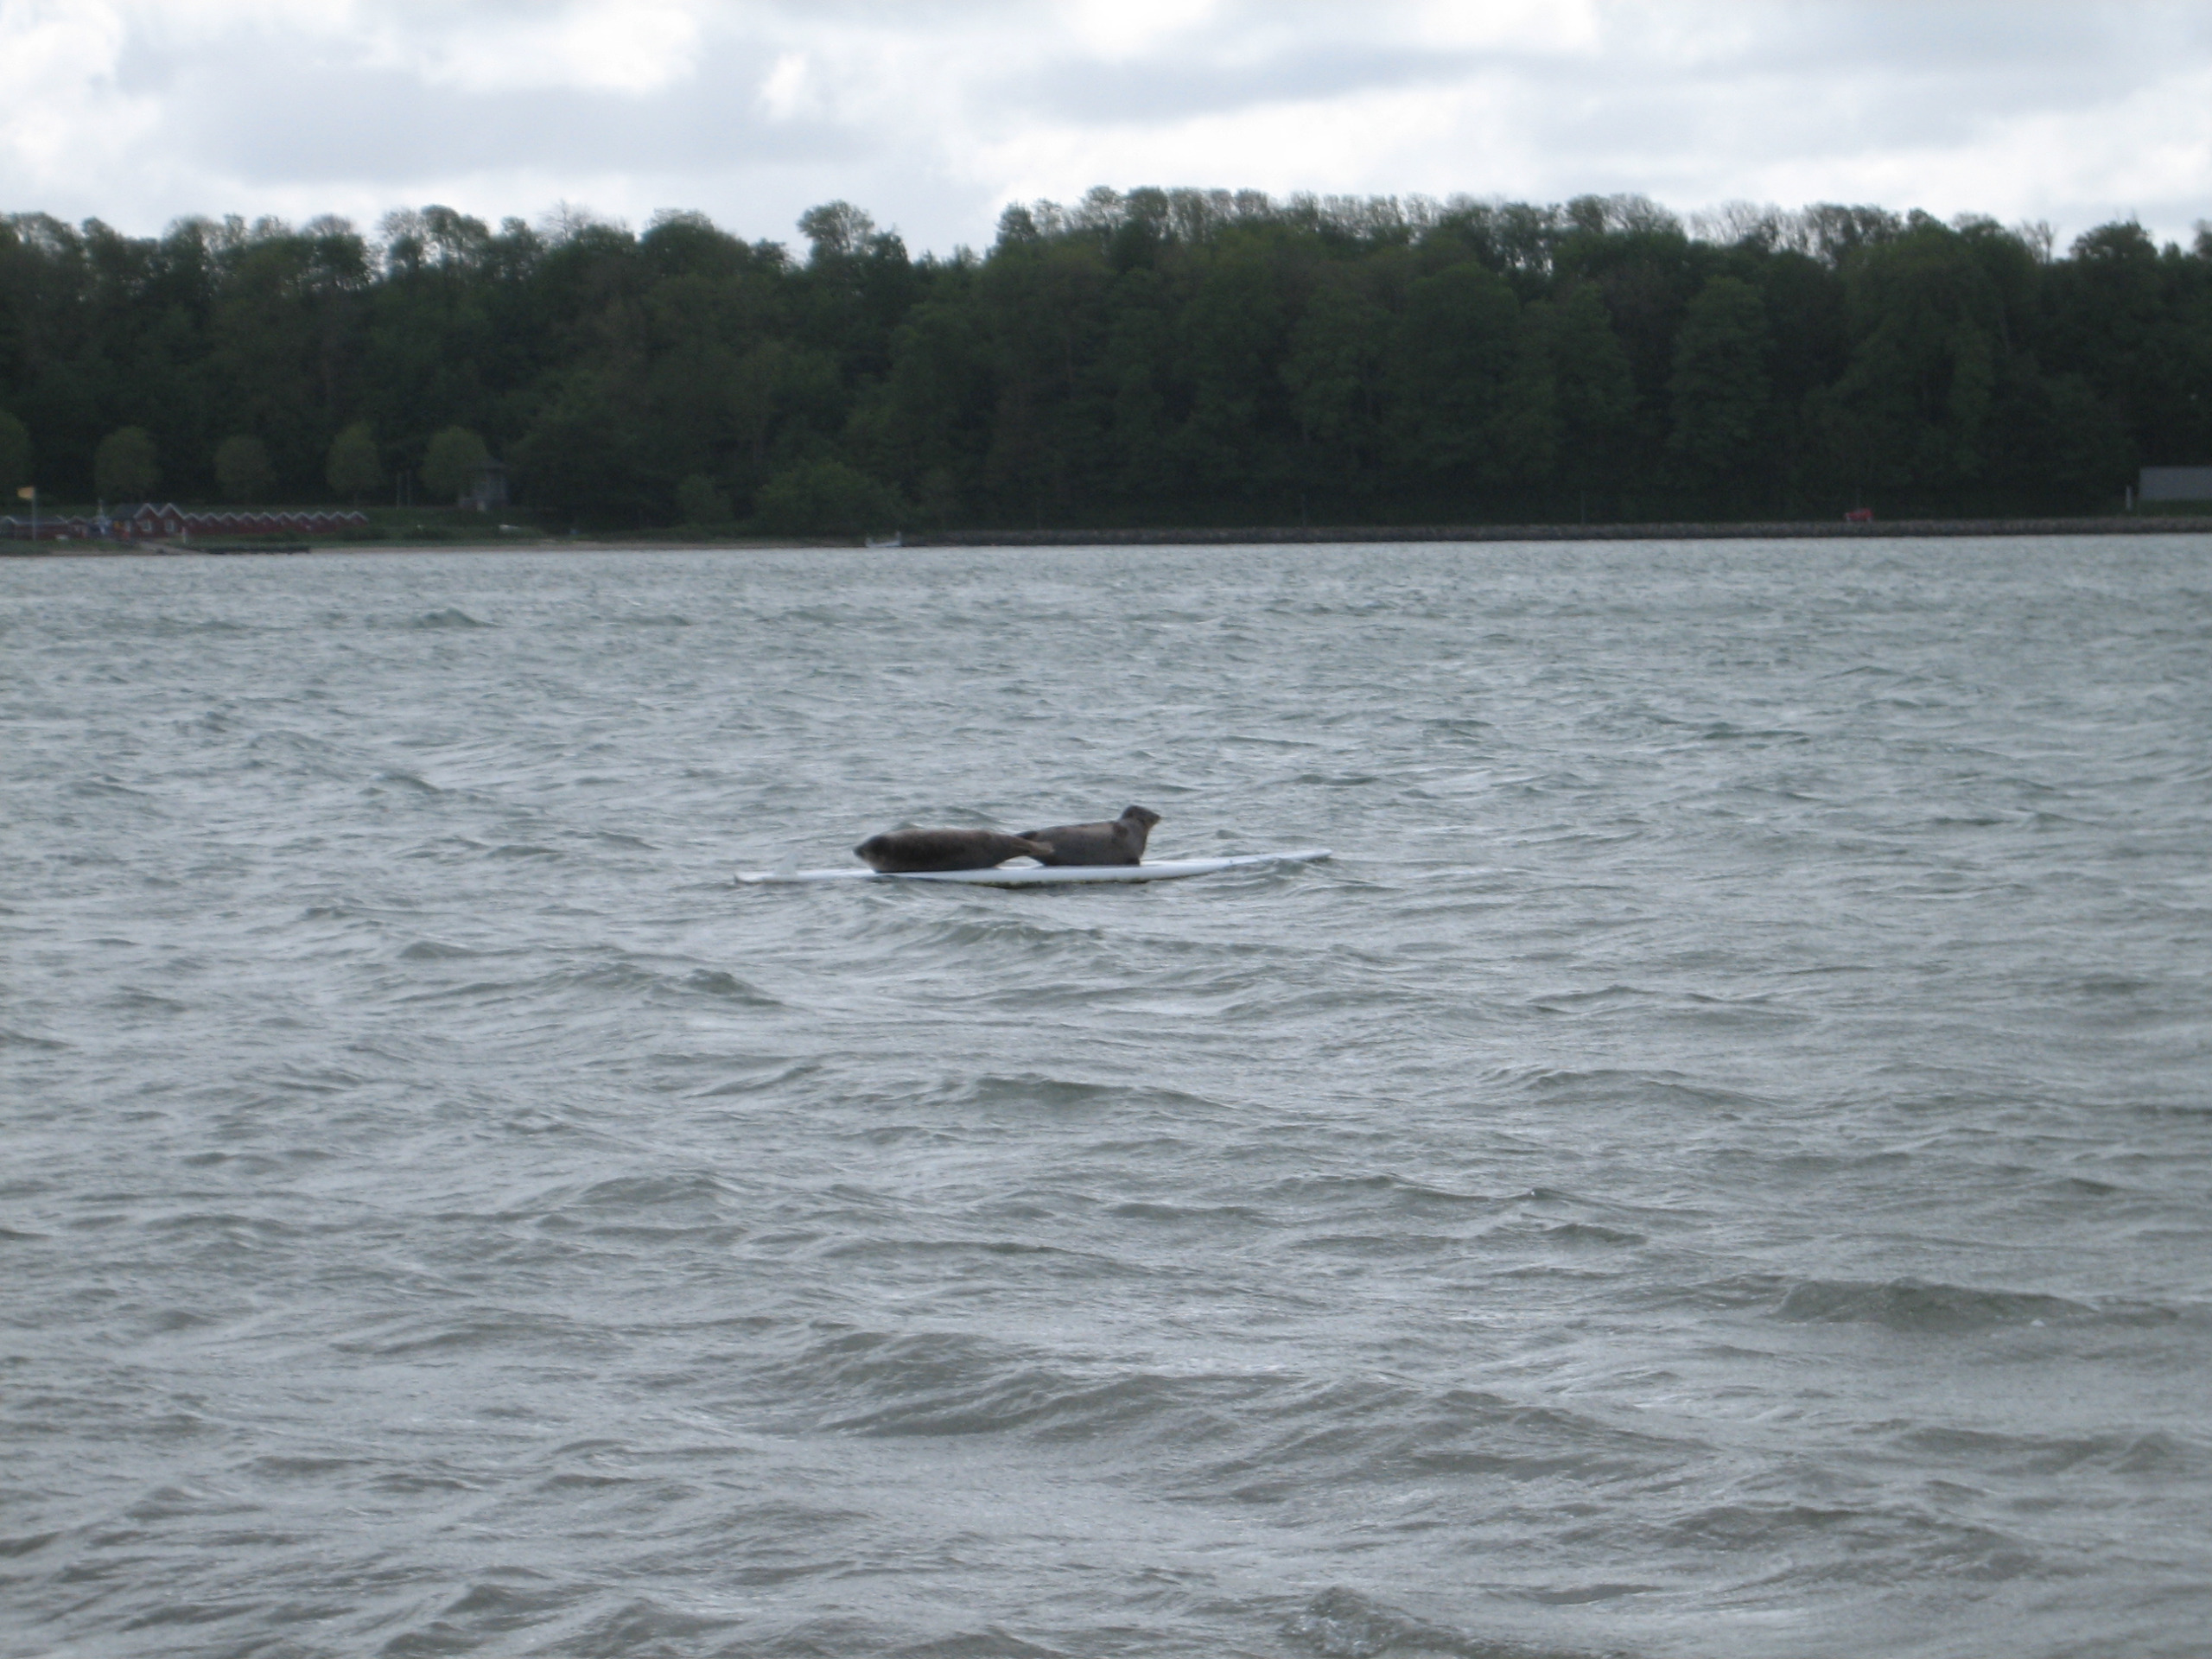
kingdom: Animalia
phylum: Chordata
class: Mammalia
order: Carnivora
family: Phocidae
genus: Phoca
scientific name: Phoca vitulina
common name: Spættet sæl
